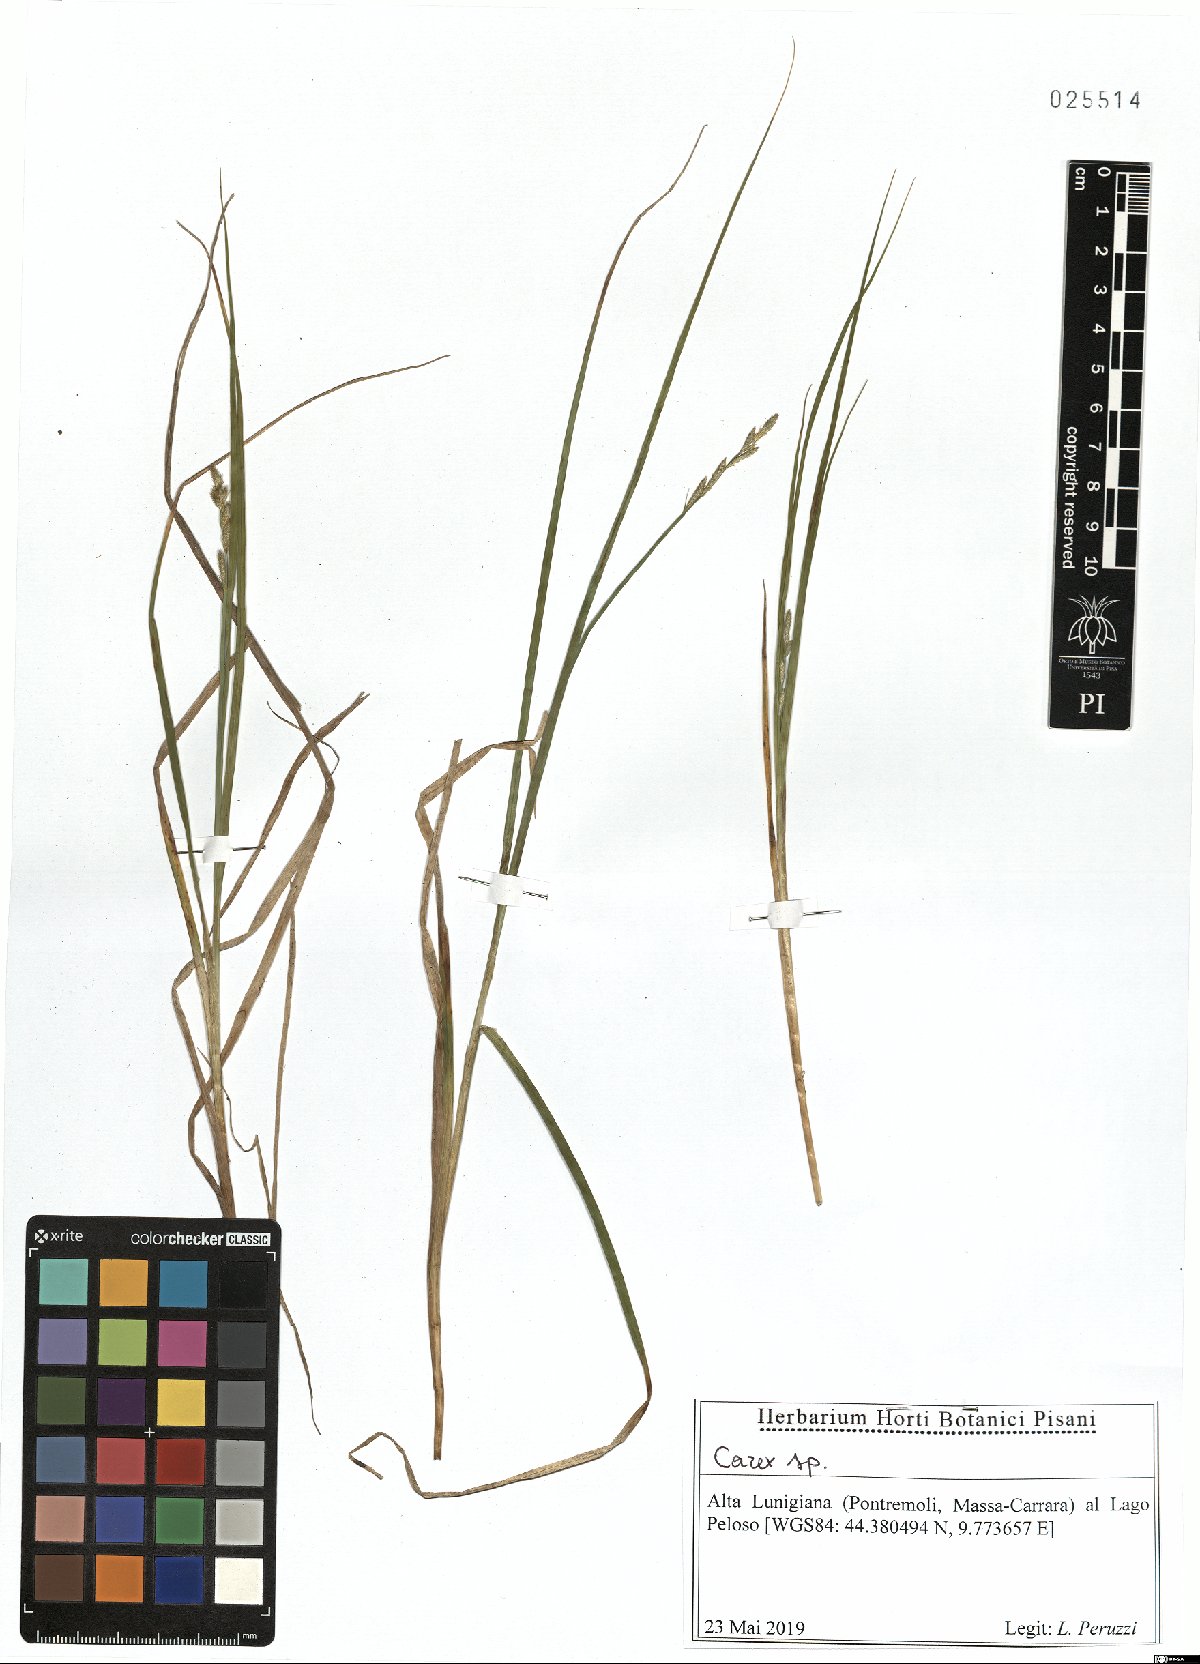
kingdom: Plantae
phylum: Tracheophyta
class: Liliopsida
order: Poales
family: Cyperaceae
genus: Carex
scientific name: Carex
